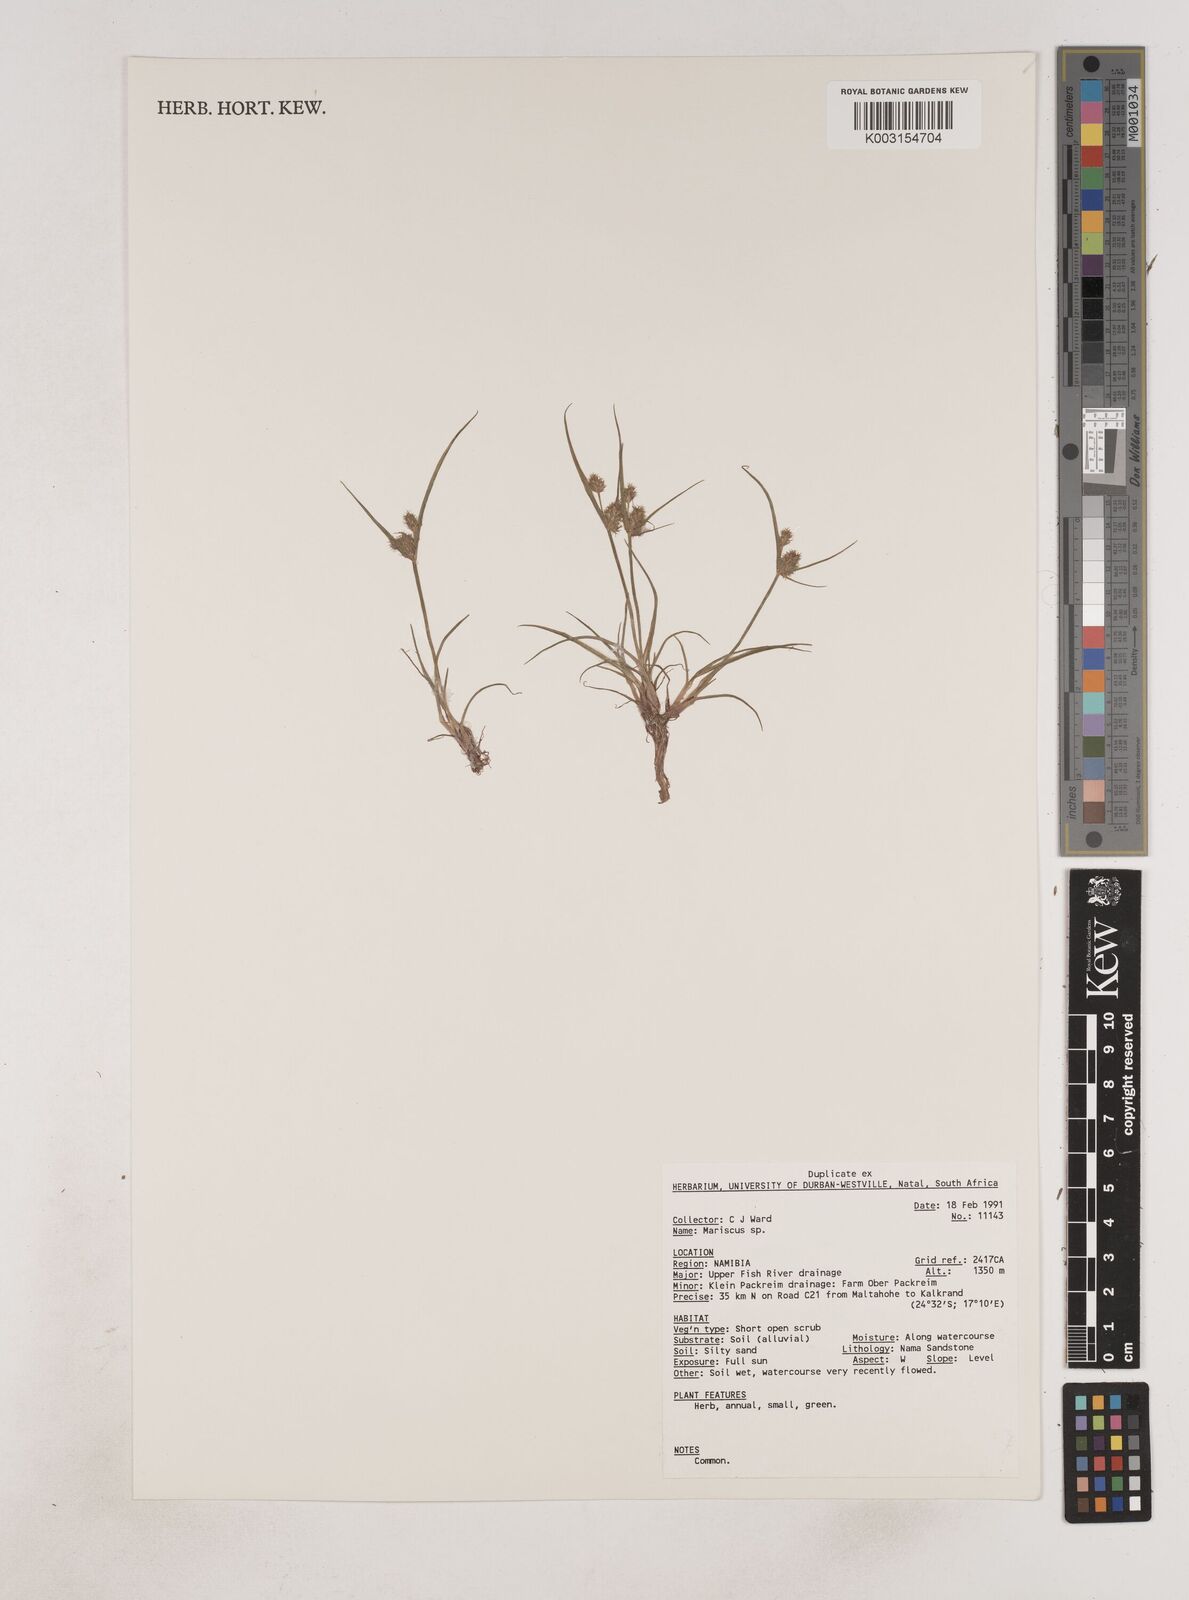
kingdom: Plantae
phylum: Tracheophyta
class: Liliopsida
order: Poales
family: Cyperaceae
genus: Cyperus
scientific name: Cyperus
